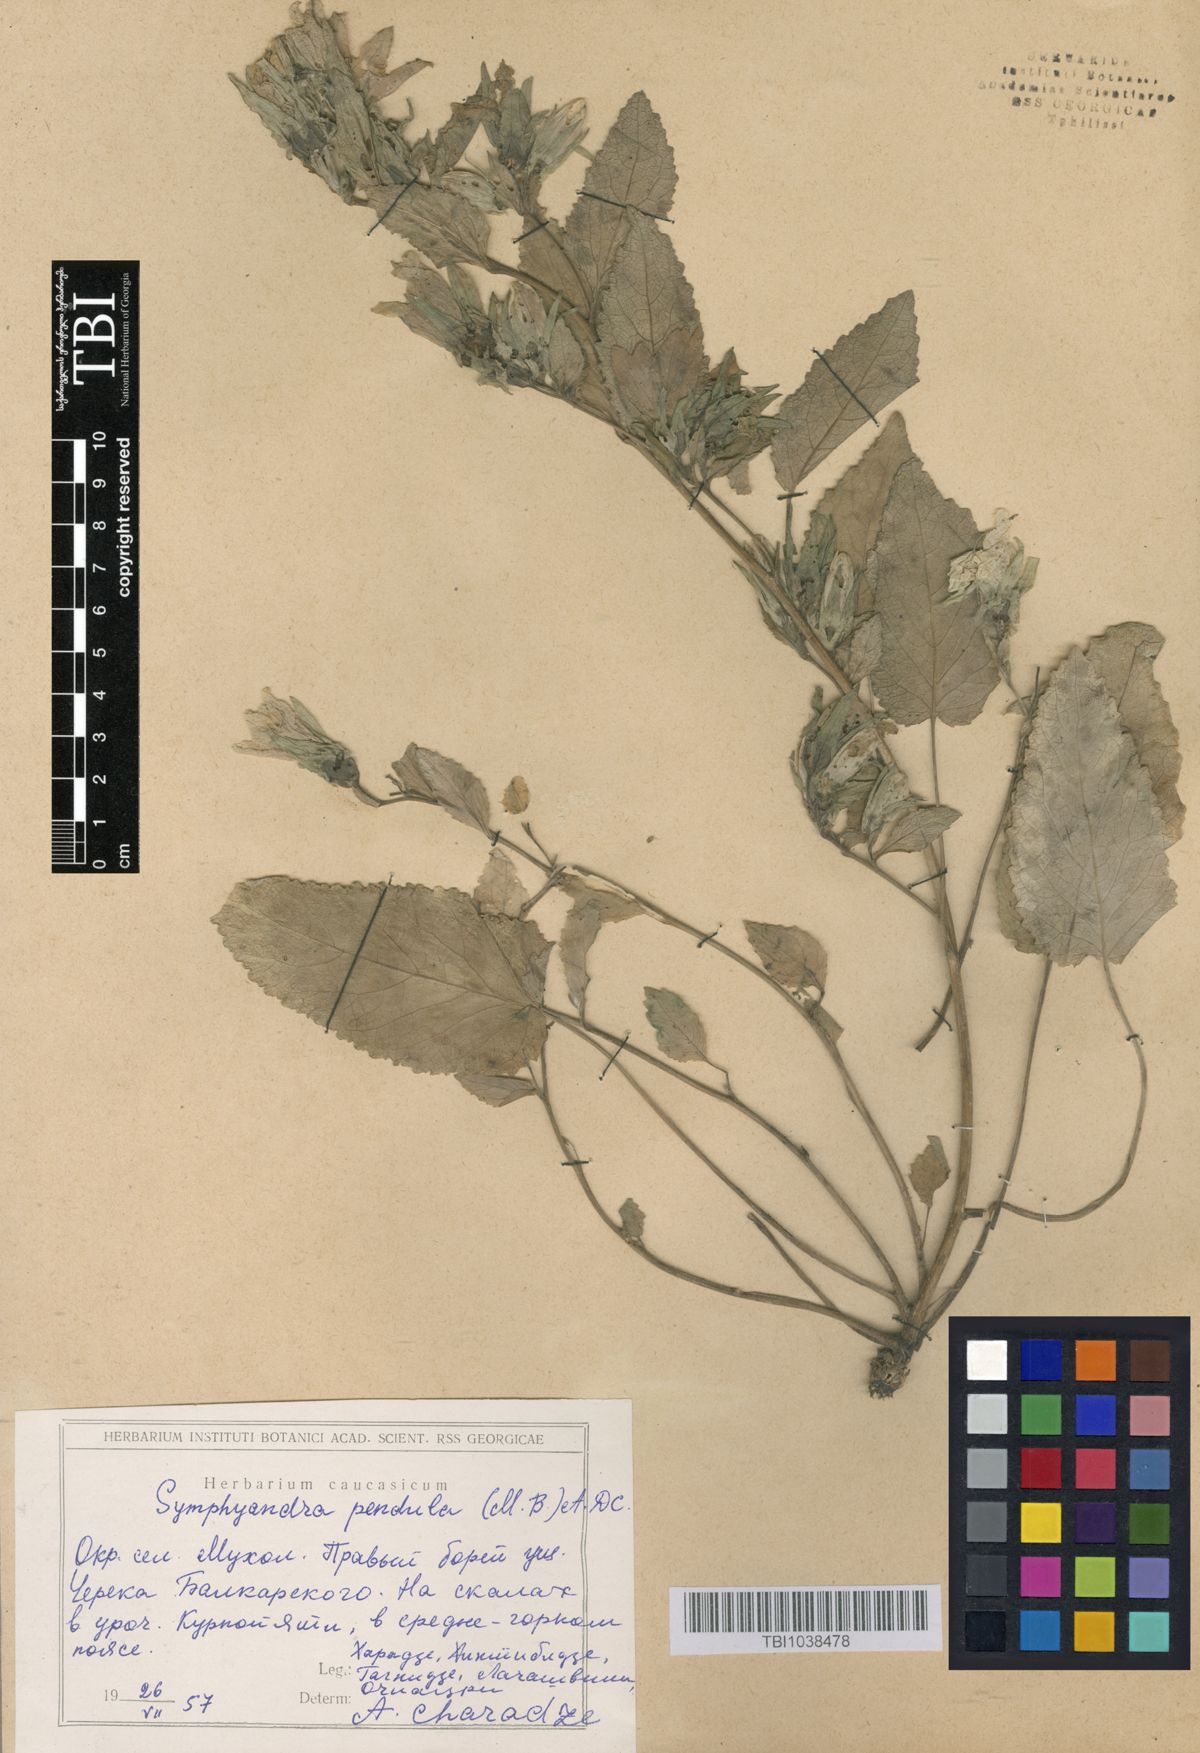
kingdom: Plantae
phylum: Tracheophyta
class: Magnoliopsida
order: Asterales
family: Campanulaceae
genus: Campanula
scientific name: Campanula pendula
